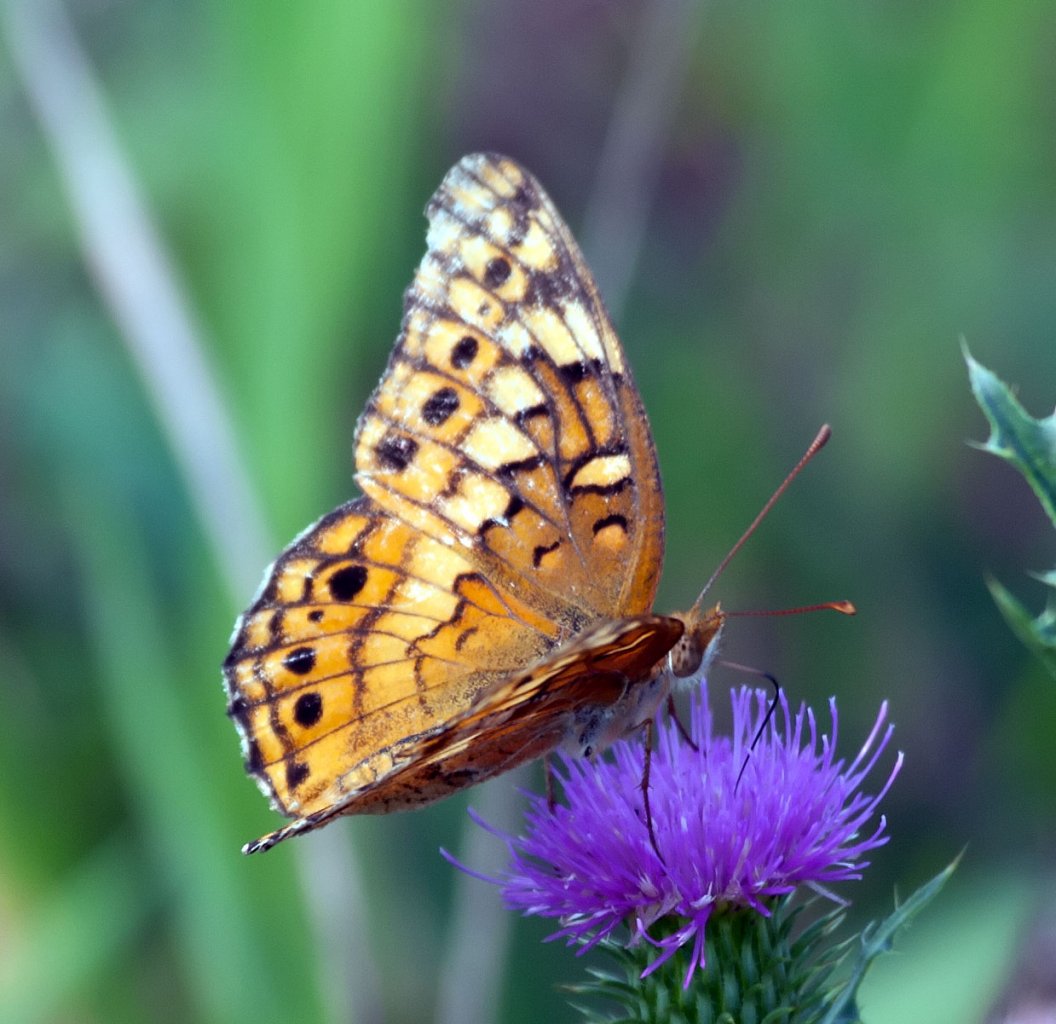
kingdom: Animalia
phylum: Arthropoda
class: Insecta
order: Lepidoptera
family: Nymphalidae
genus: Euptoieta
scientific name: Euptoieta claudia
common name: Variegated Fritillary
